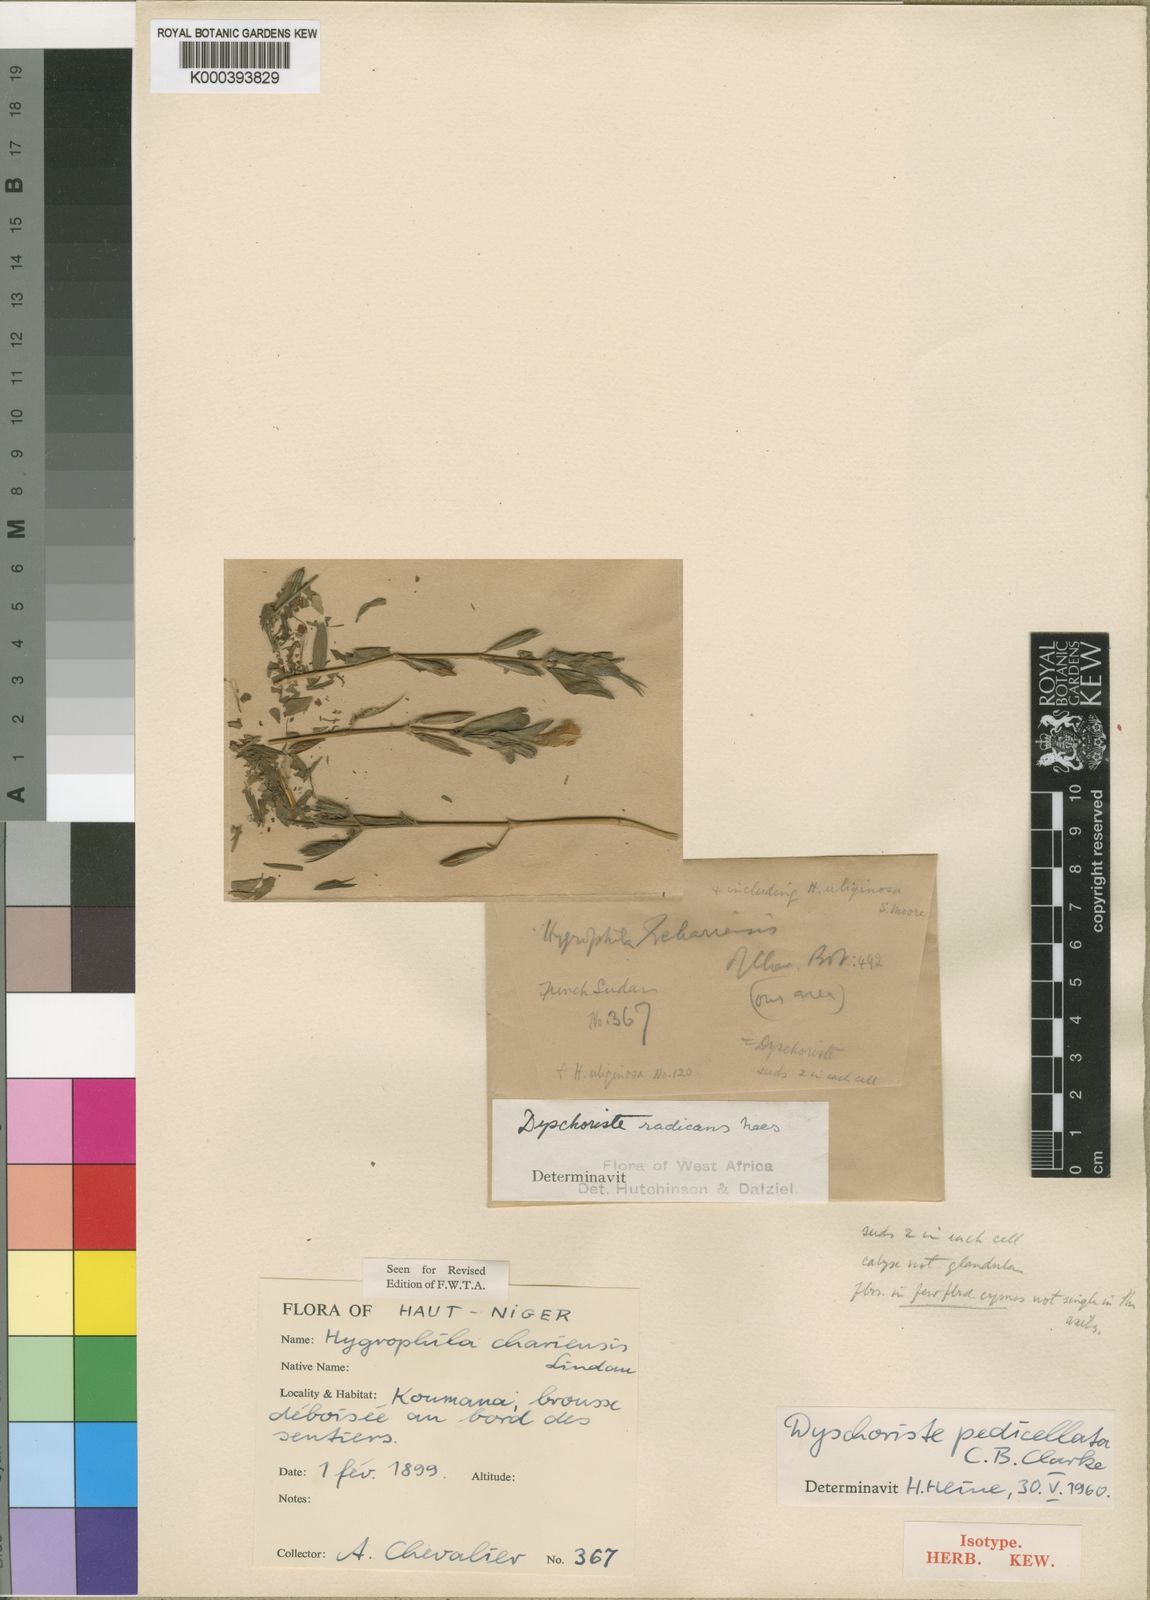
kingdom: Plantae
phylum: Tracheophyta
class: Magnoliopsida
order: Lamiales
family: Acanthaceae
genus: Dyschoriste
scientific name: Dyschoriste heudelotiana
